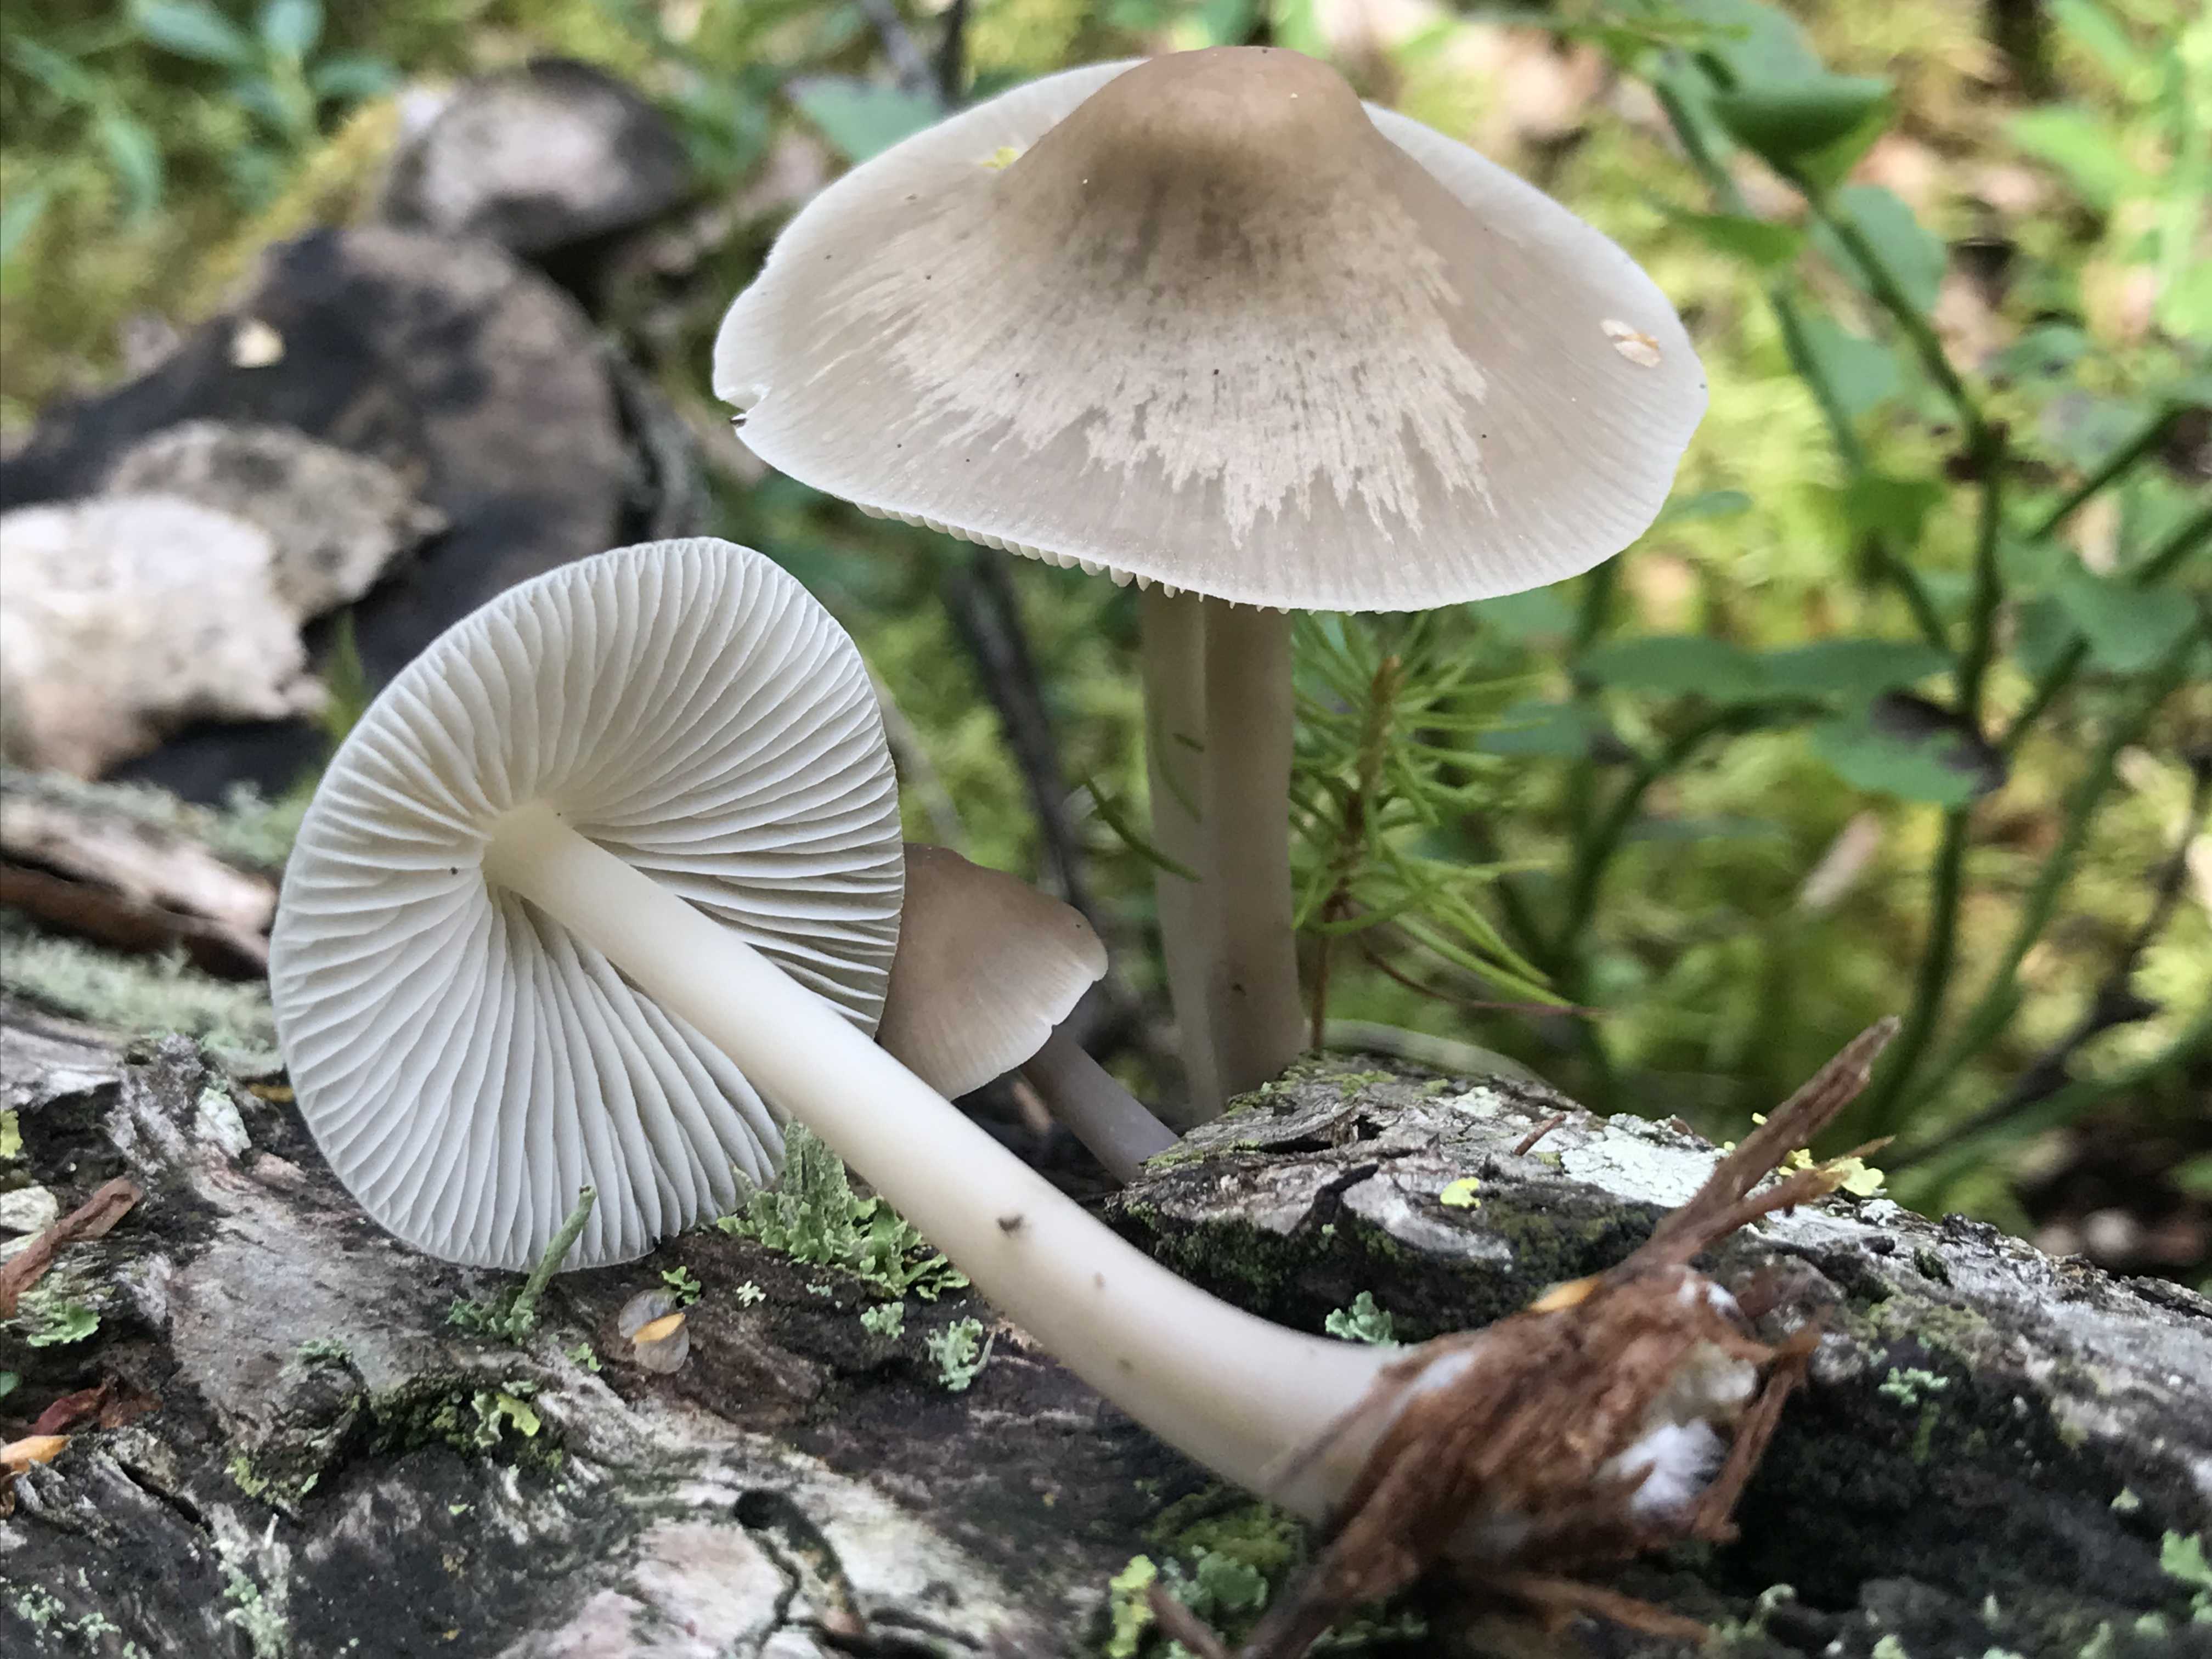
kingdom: Fungi
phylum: Basidiomycota
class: Agaricomycetes
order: Agaricales
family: Mycenaceae
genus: Mycena
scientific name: Mycena galericulata
